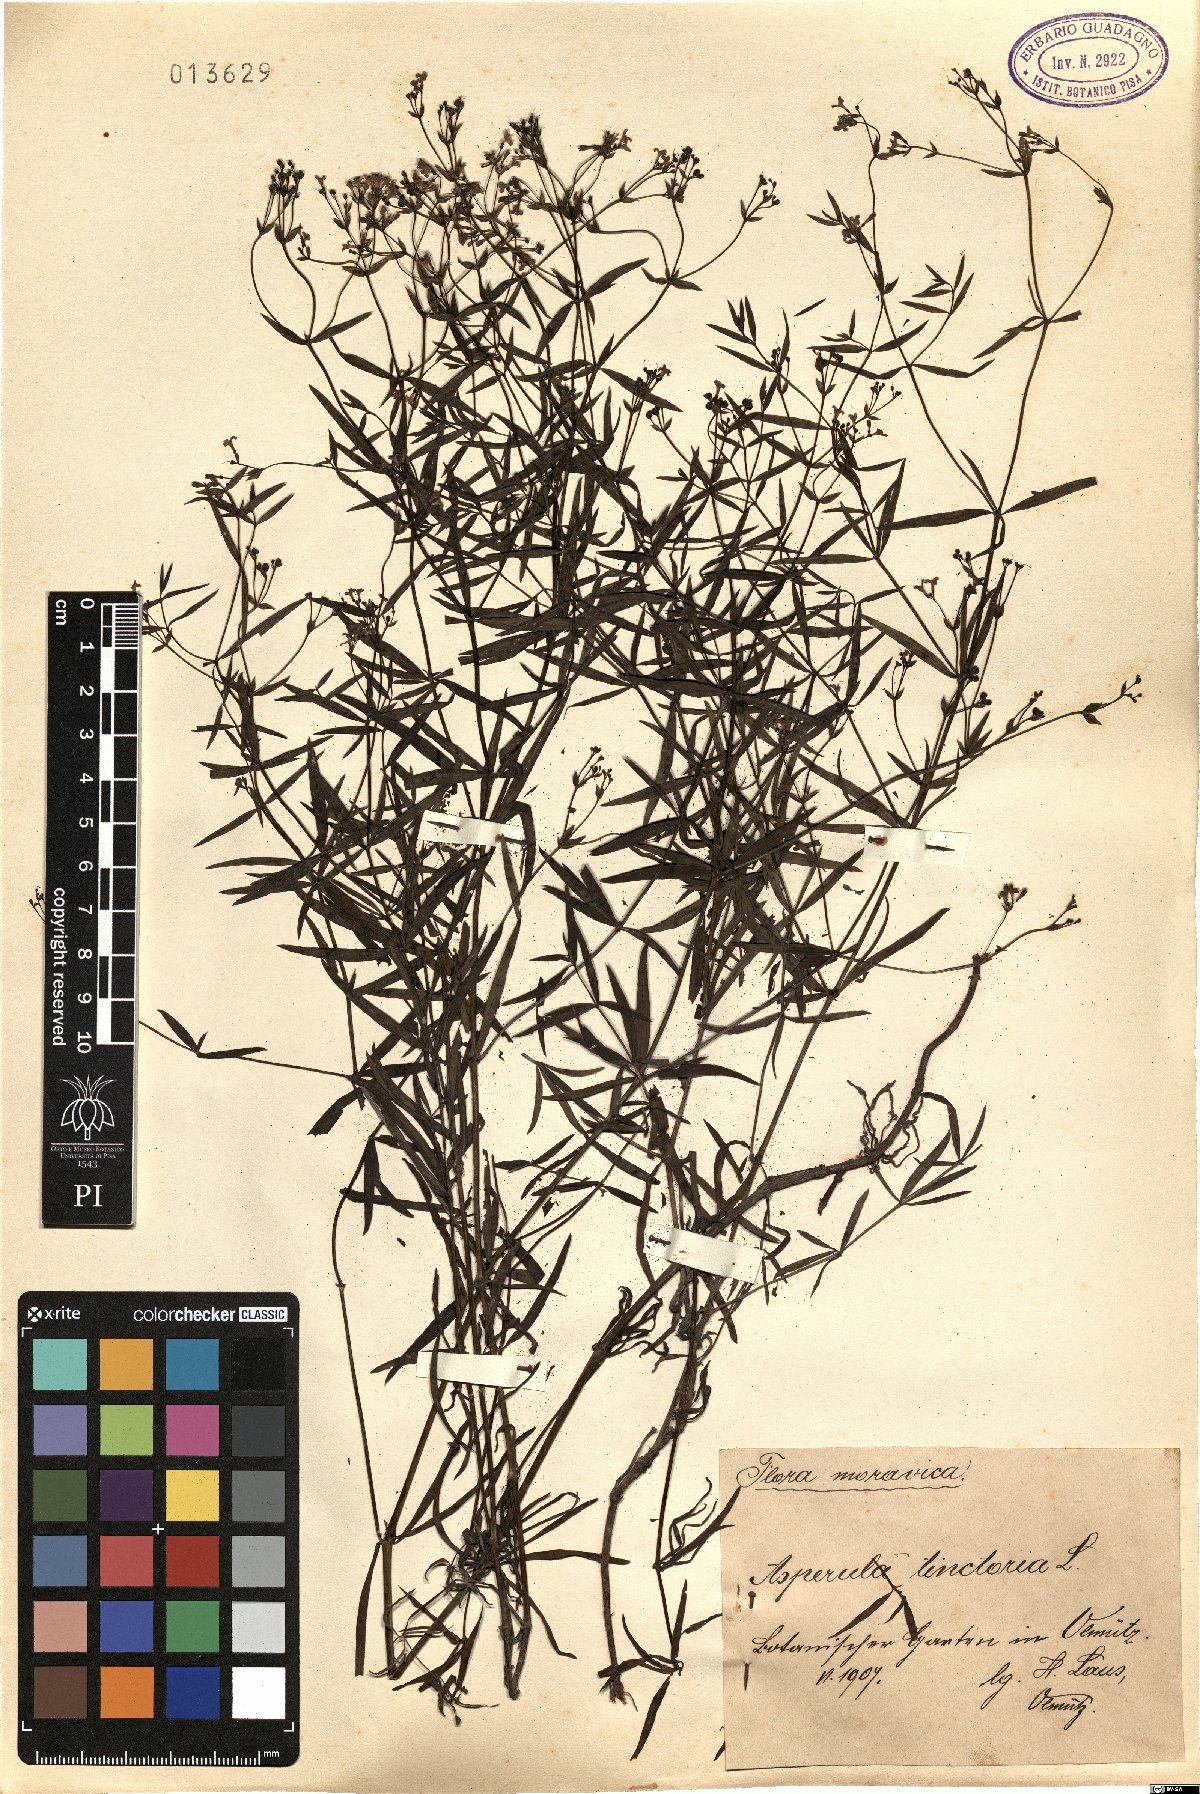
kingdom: Plantae
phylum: Tracheophyta
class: Magnoliopsida
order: Gentianales
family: Rubiaceae
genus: Asperula
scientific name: Asperula tinctoria
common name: Dyer's woodruff
